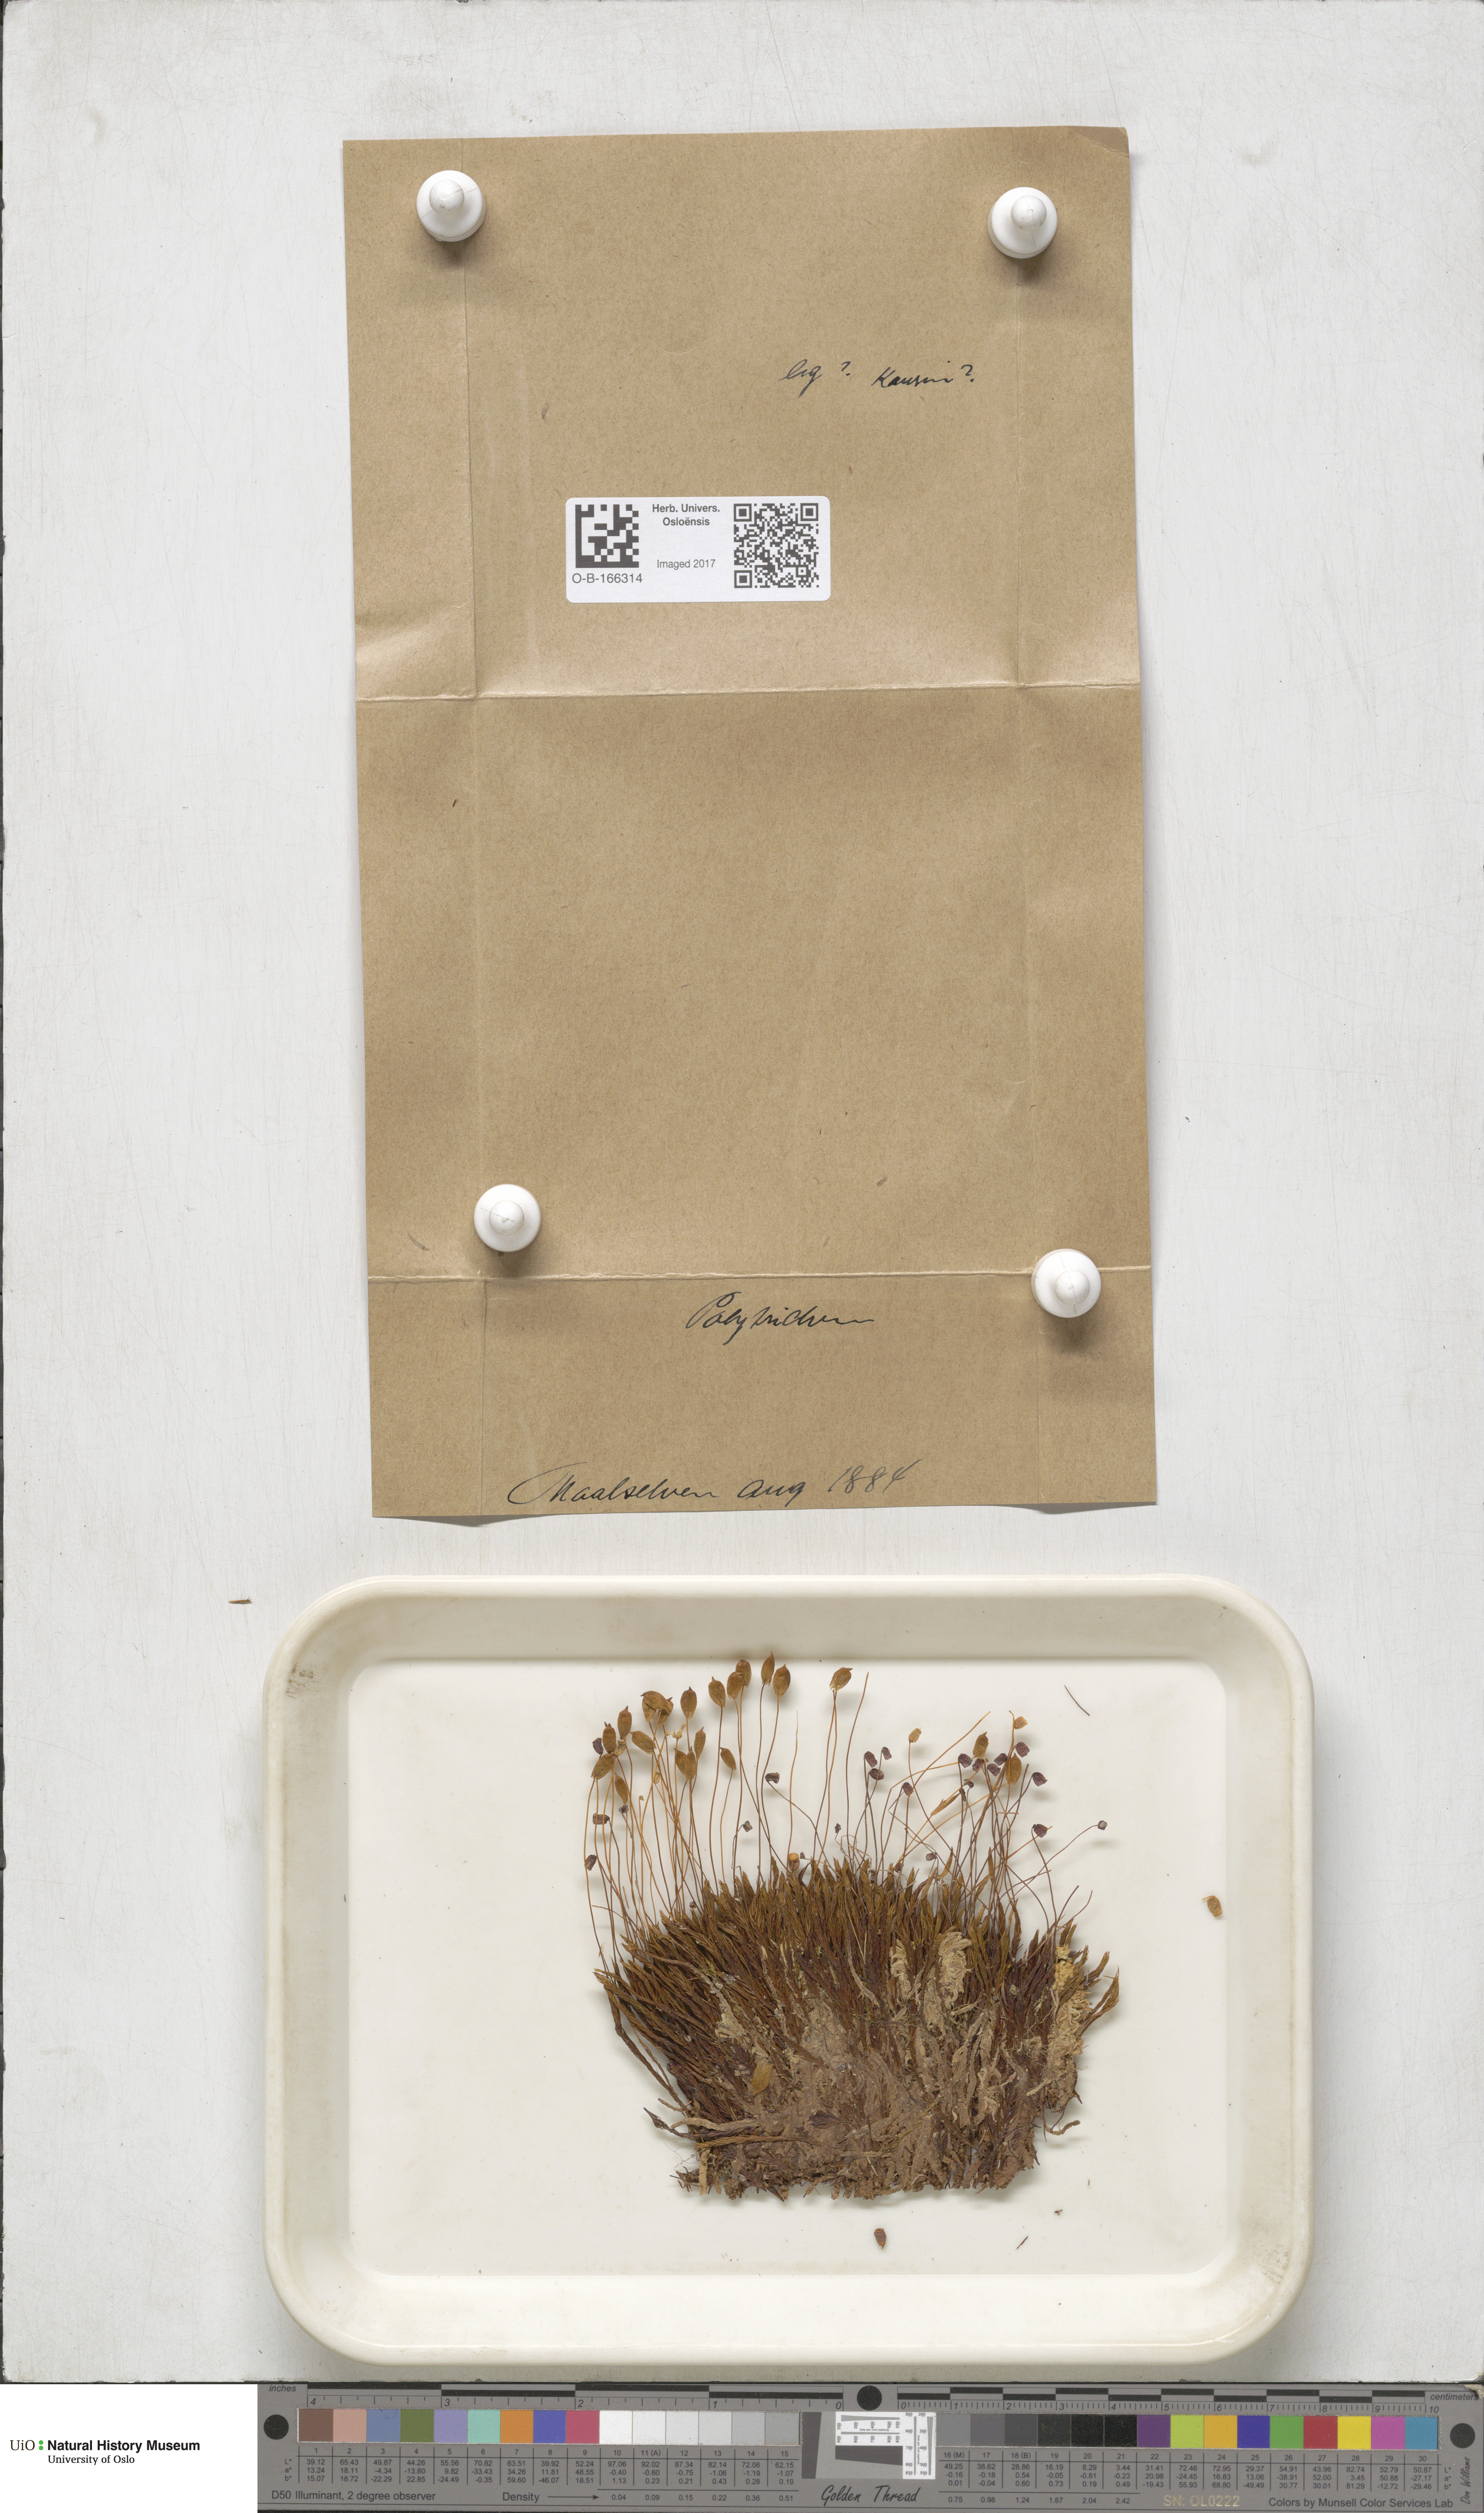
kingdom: Plantae
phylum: Bryophyta
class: Polytrichopsida
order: Polytrichales
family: Polytrichaceae
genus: Polytrichum
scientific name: Polytrichum
